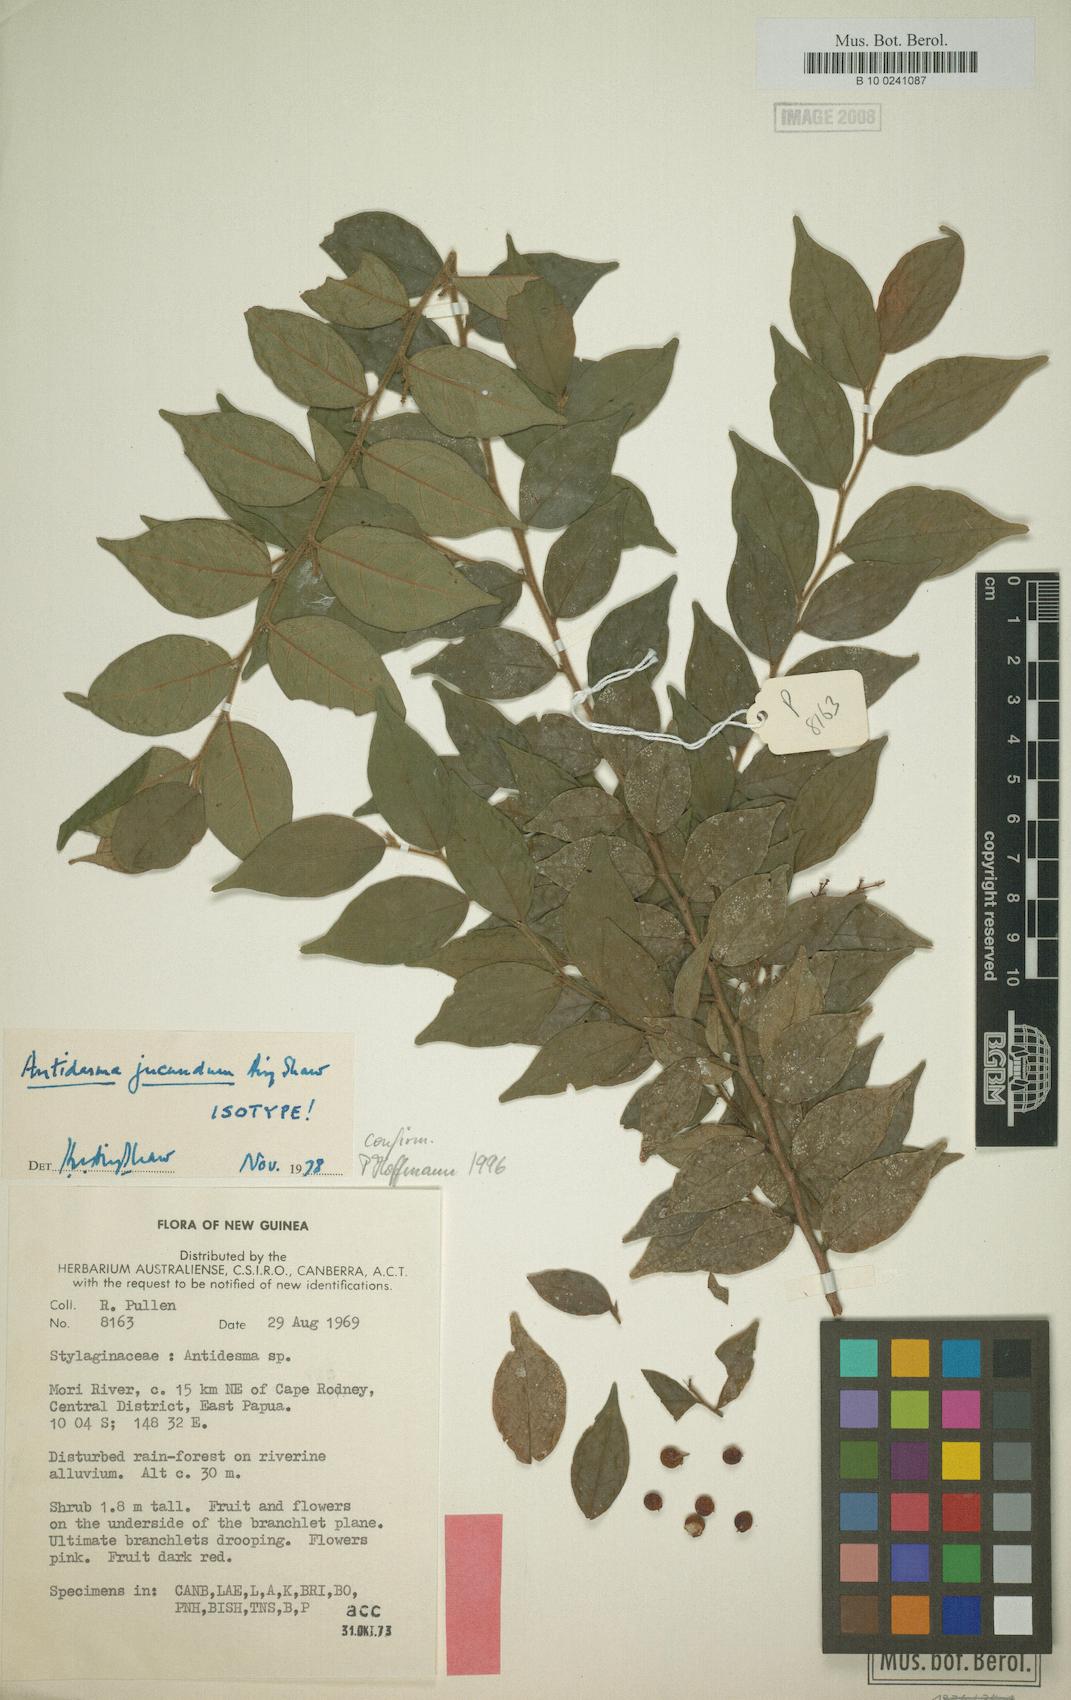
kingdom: Plantae
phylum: Tracheophyta
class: Magnoliopsida
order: Malpighiales
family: Phyllanthaceae
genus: Antidesma
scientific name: Antidesma jucundum
